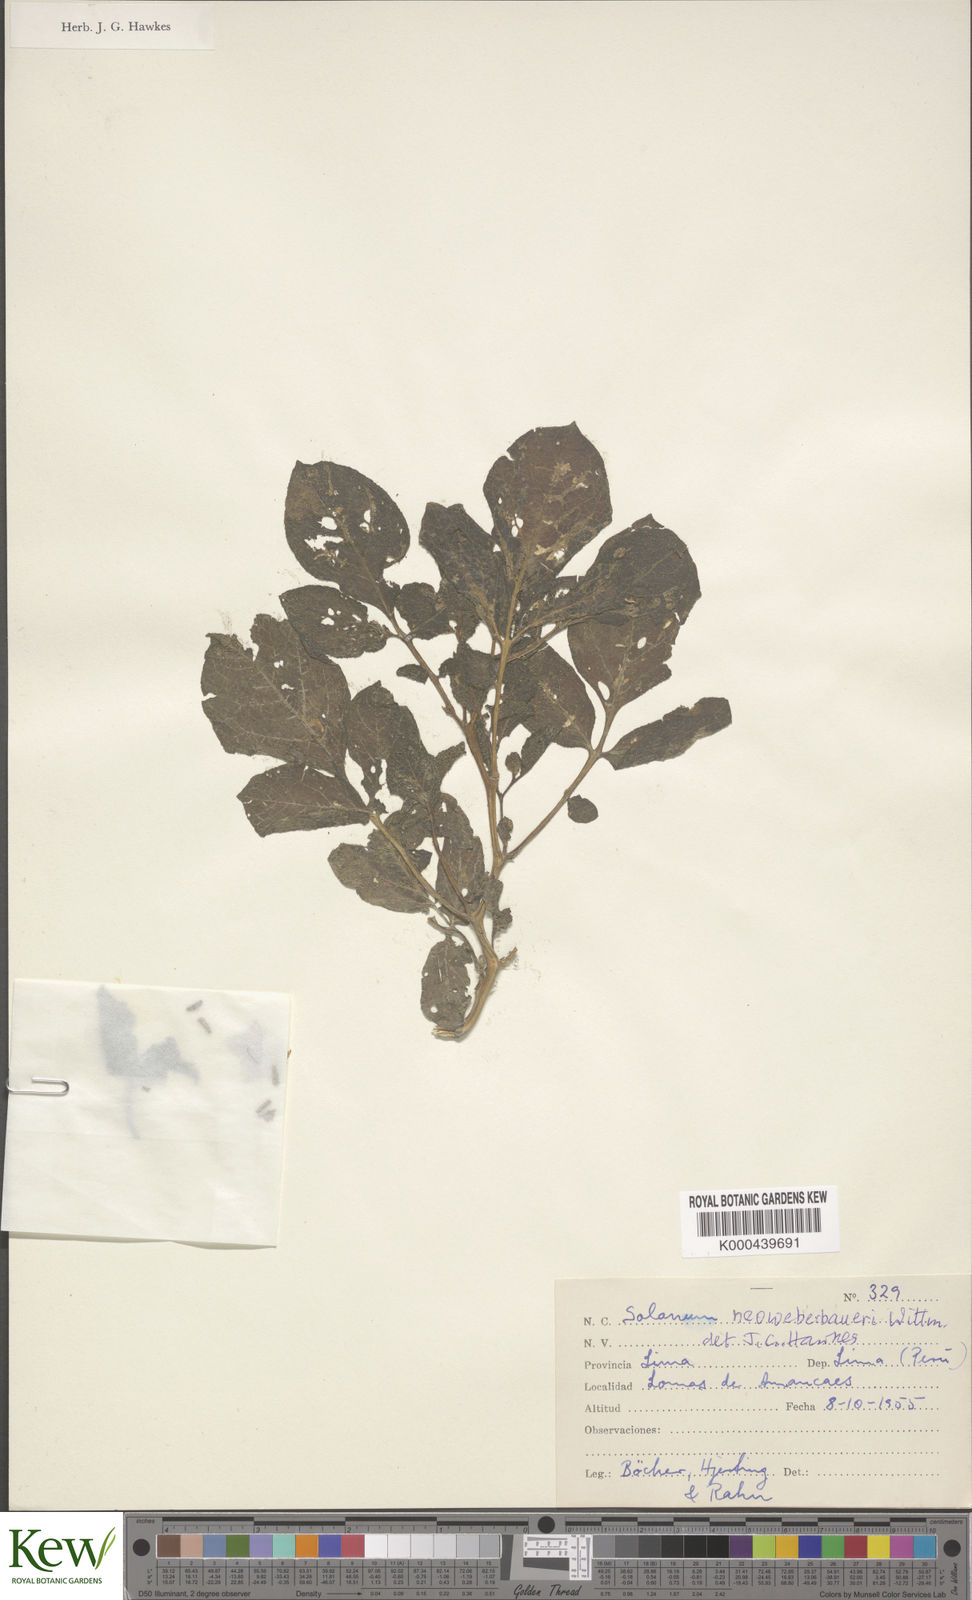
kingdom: Plantae
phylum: Tracheophyta
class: Magnoliopsida
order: Solanales
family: Solanaceae
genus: Solanum
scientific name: Solanum medians
